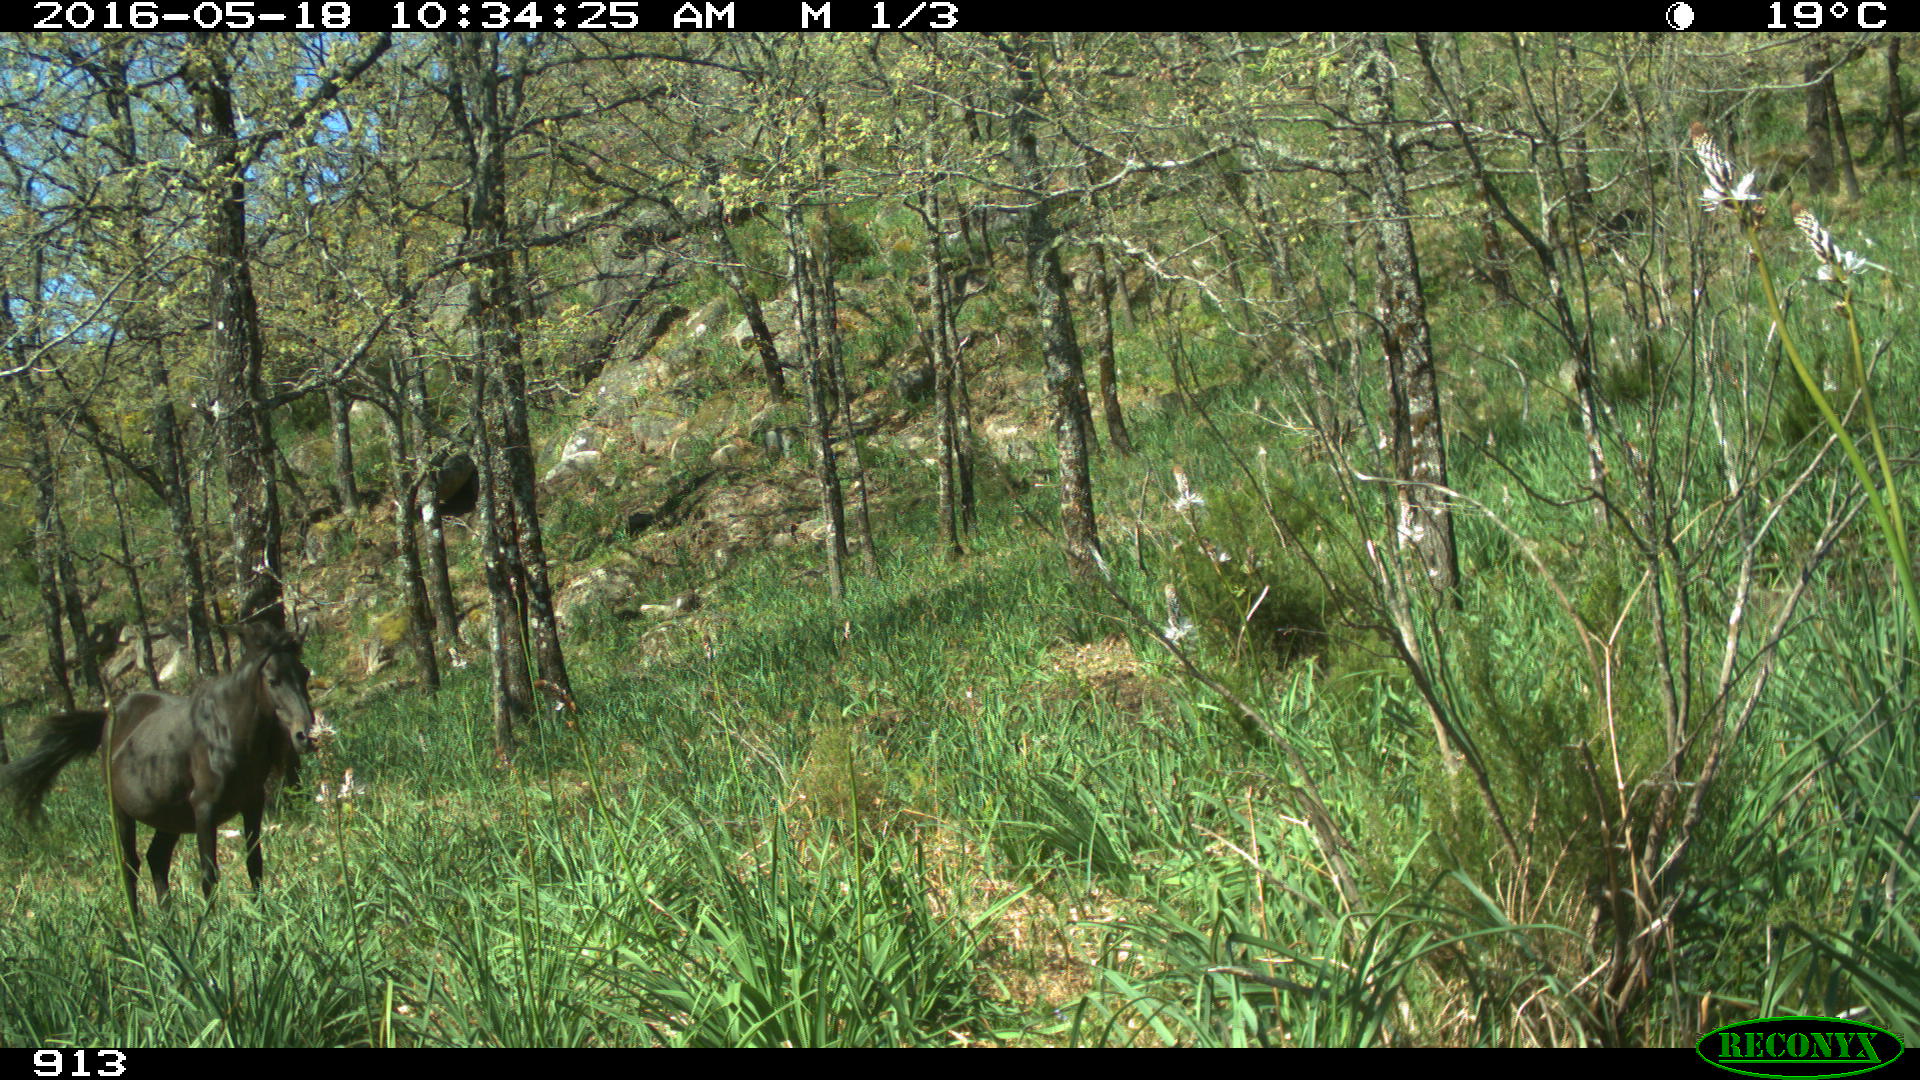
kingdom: Animalia
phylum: Chordata
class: Mammalia
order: Perissodactyla
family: Equidae
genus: Equus
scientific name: Equus caballus
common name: Horse
